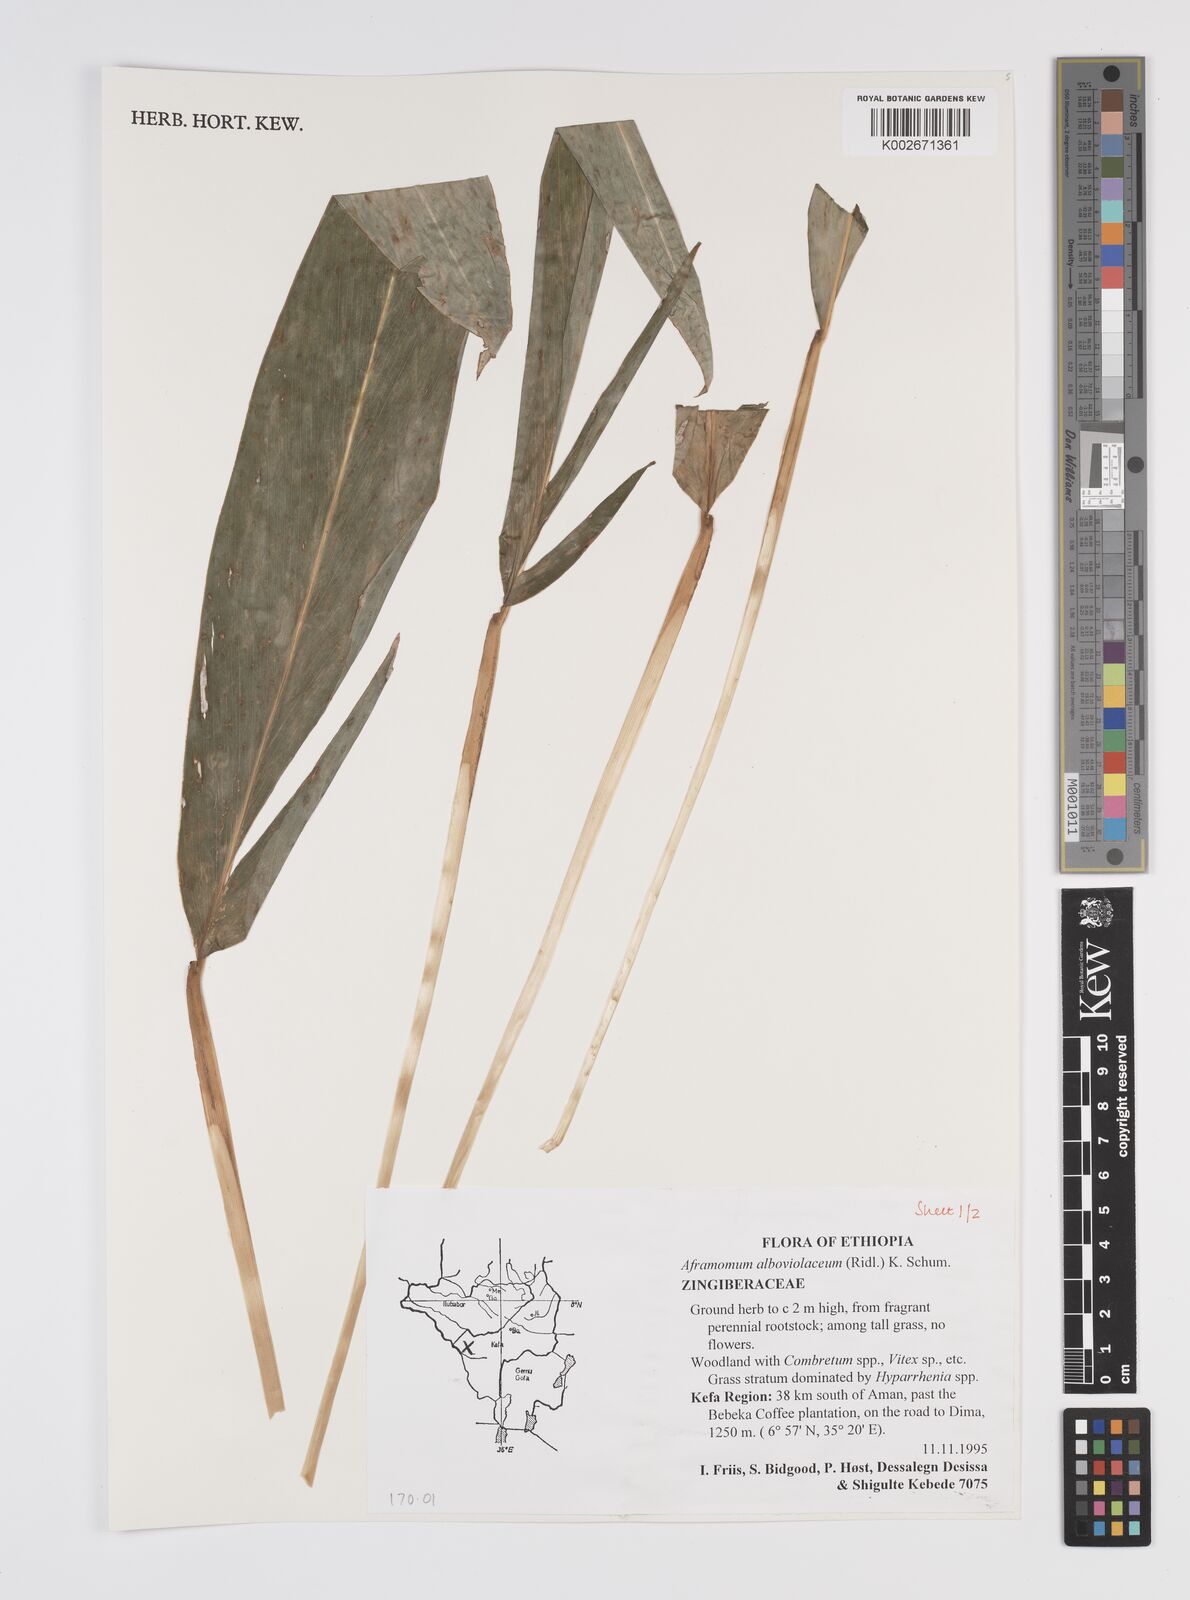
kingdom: Plantae
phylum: Tracheophyta
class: Liliopsida
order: Zingiberales
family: Zingiberaceae
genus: Aframomum
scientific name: Aframomum alboviolaceum
